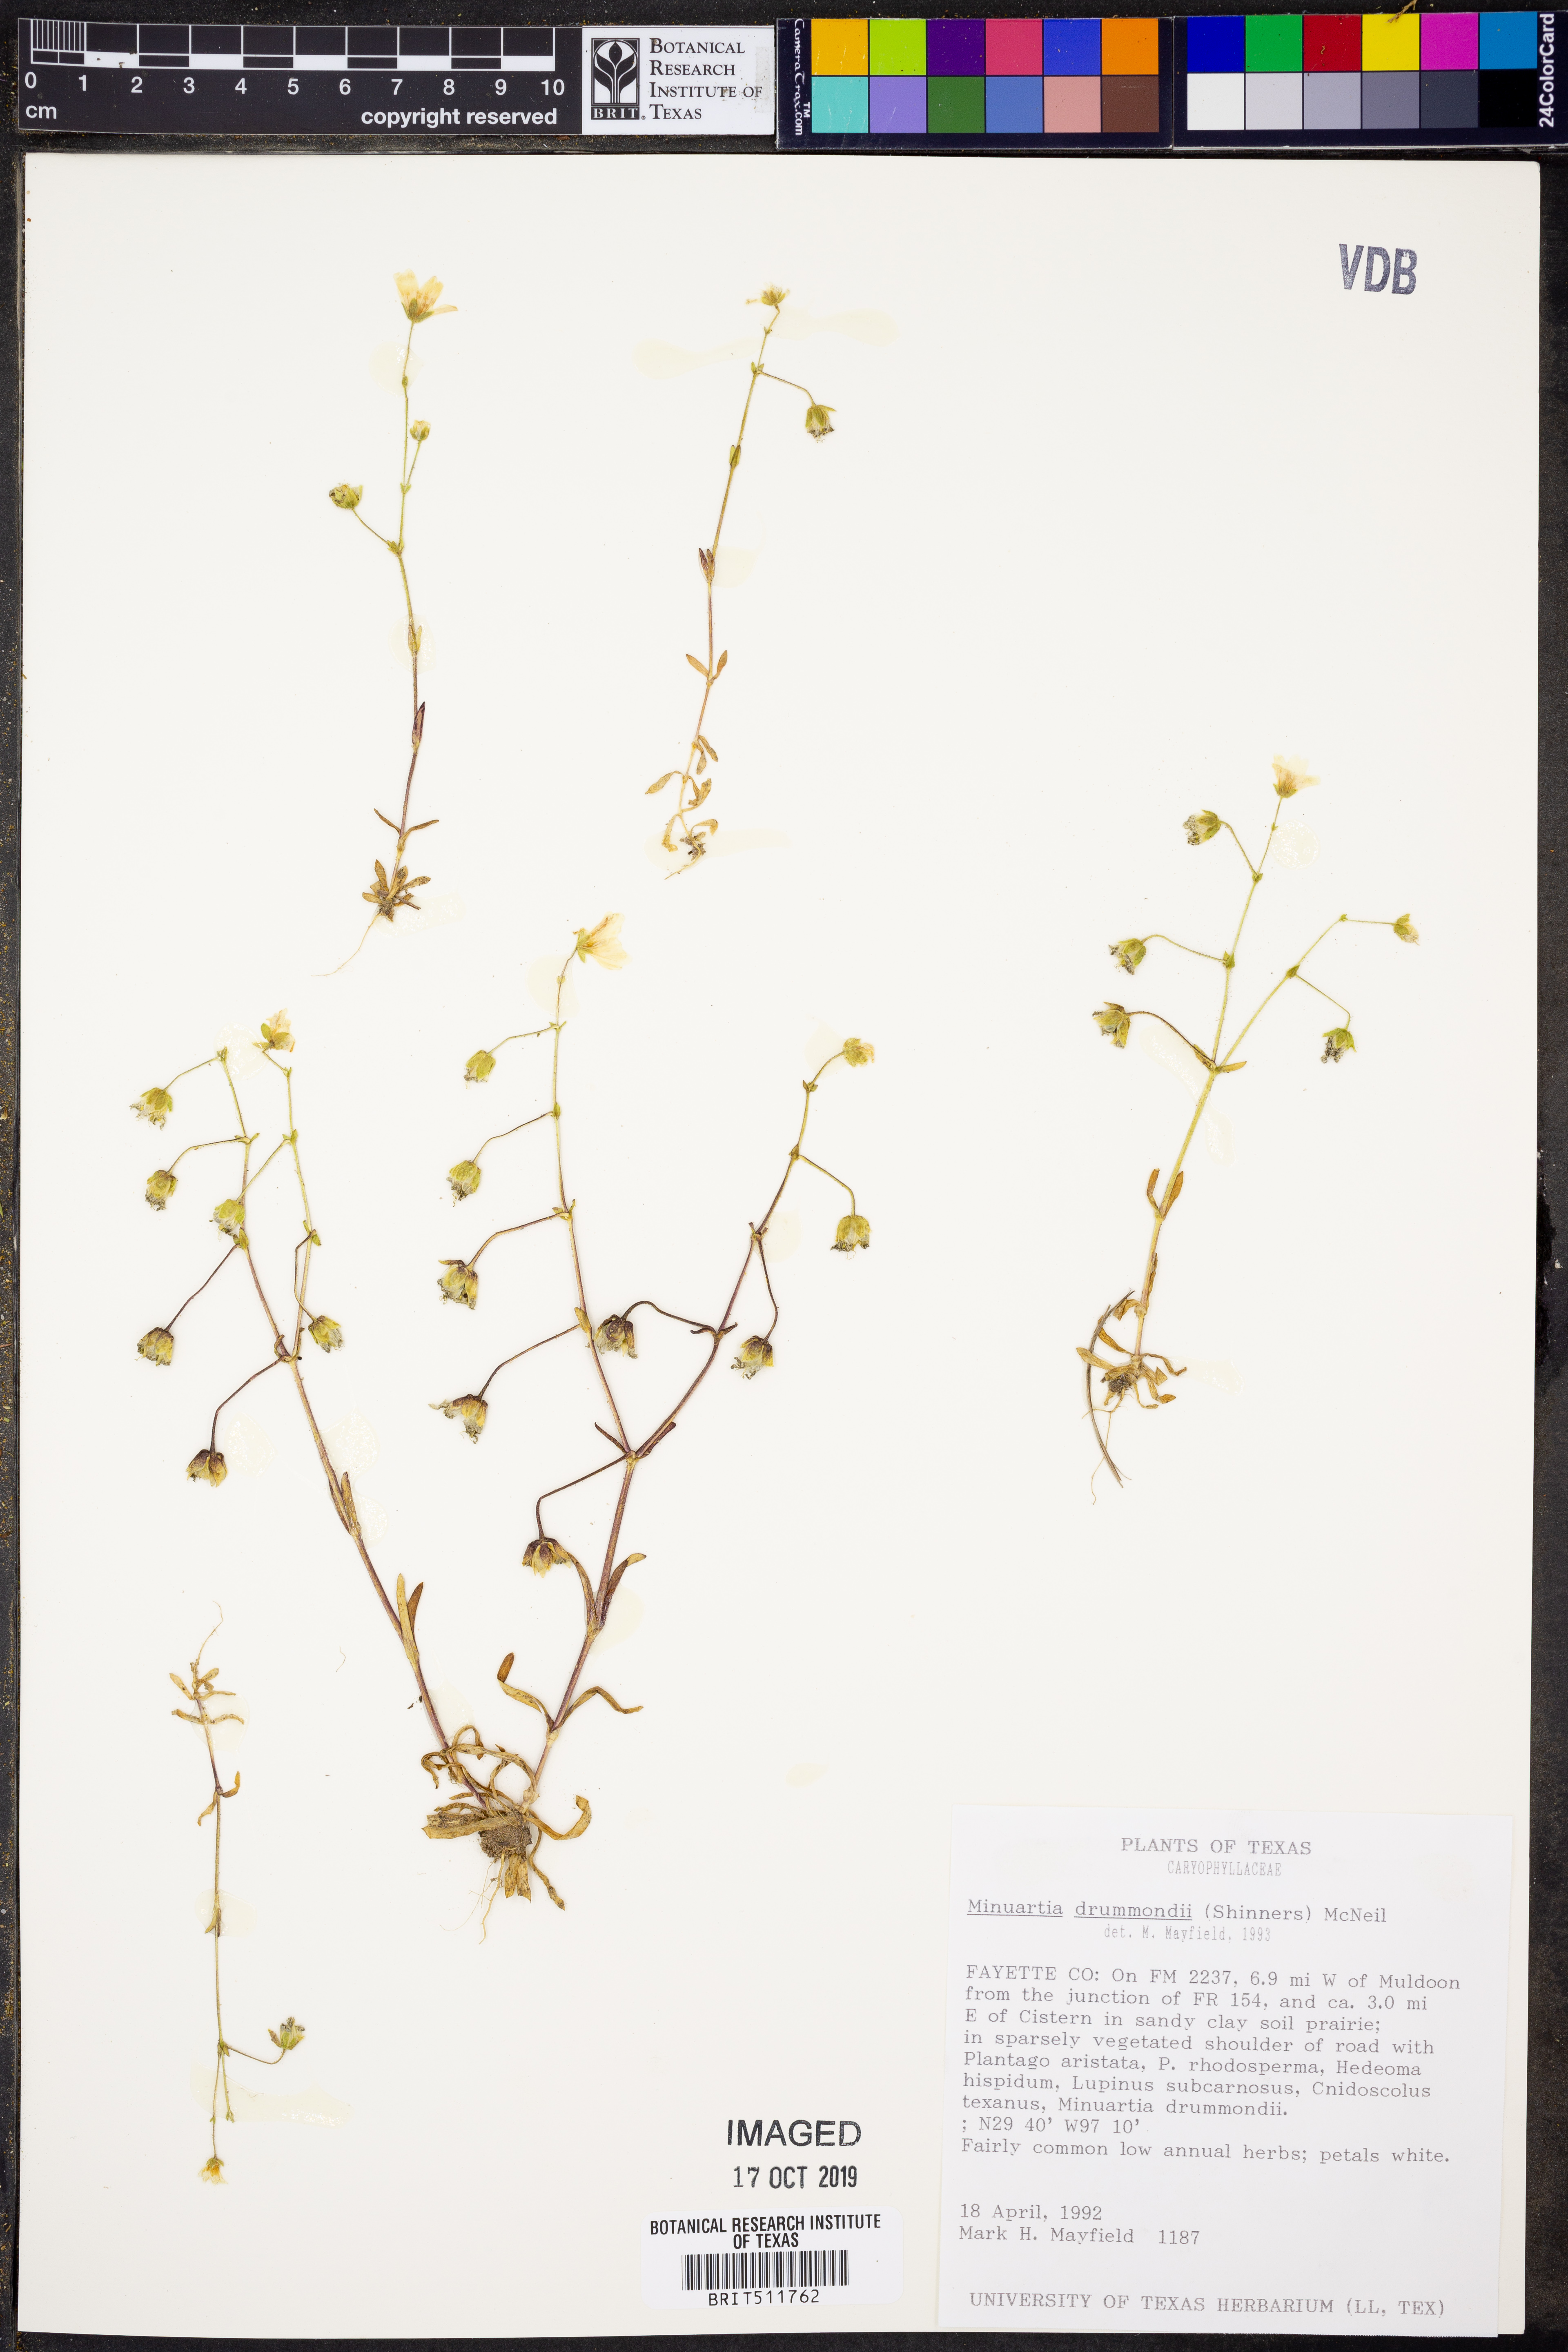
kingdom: Plantae
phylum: Tracheophyta
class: Magnoliopsida
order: Caryophyllales
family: Caryophyllaceae
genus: Geocarpon
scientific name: Geocarpon nuttallii
